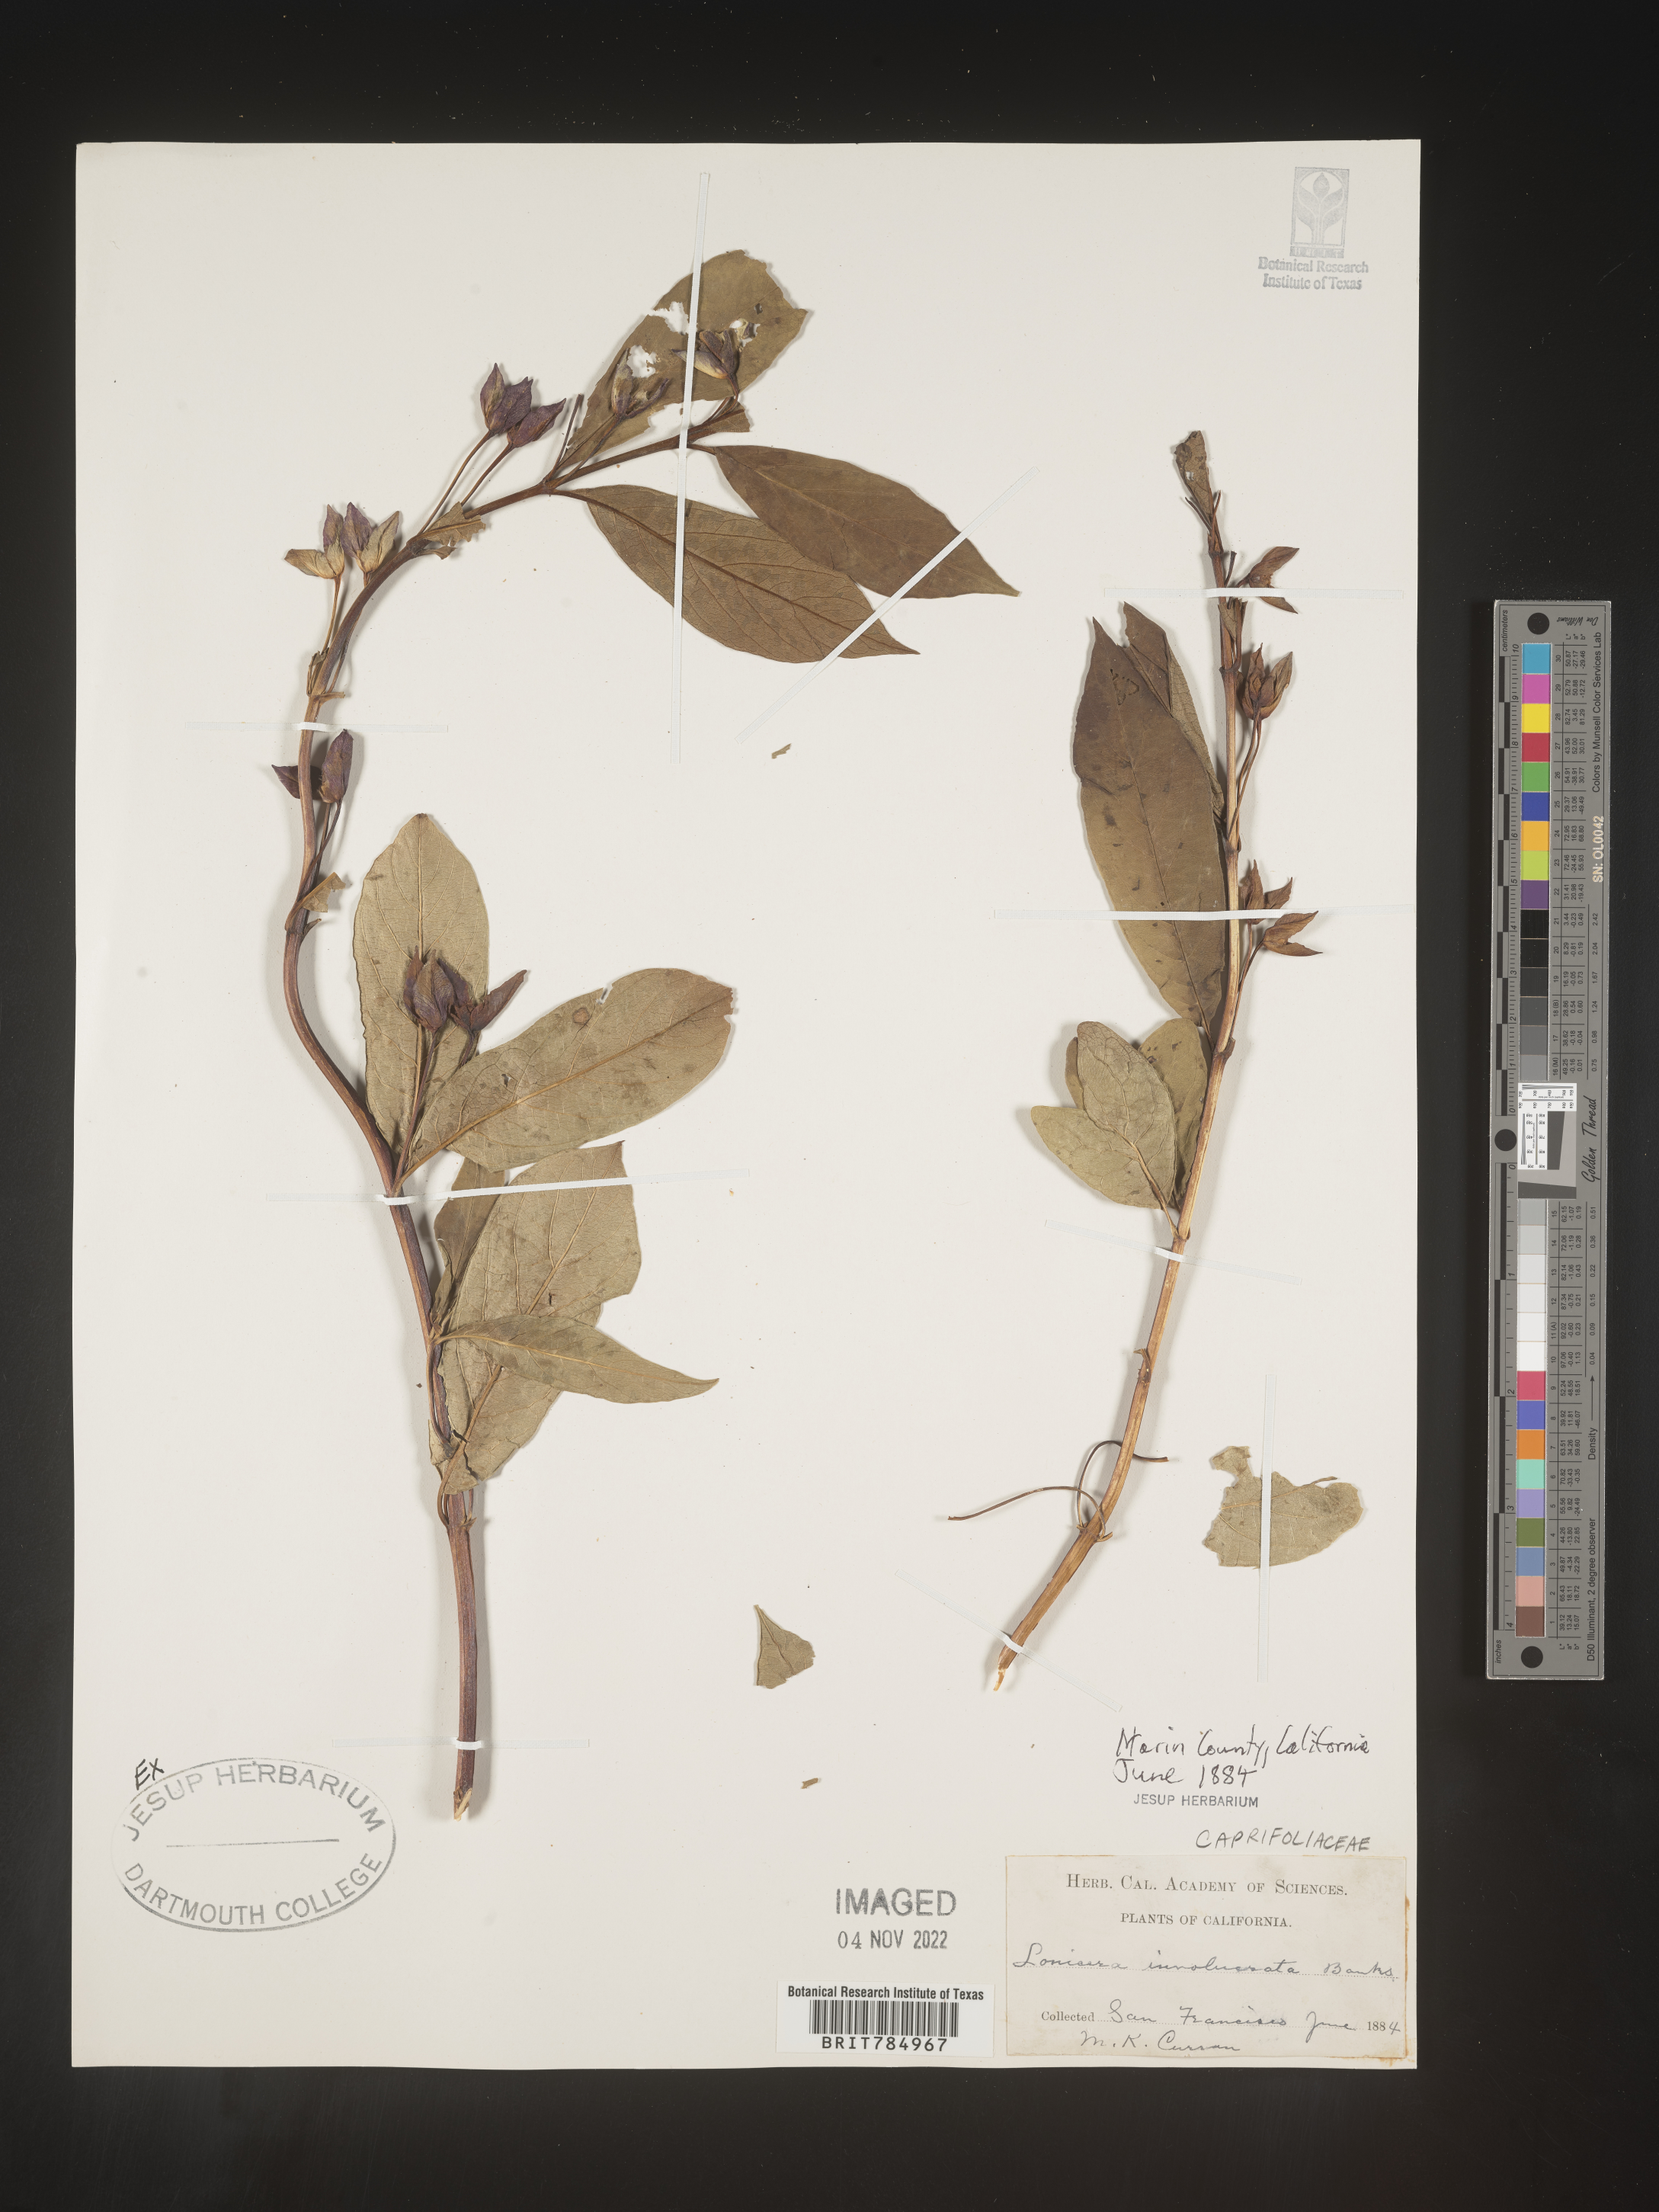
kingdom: Plantae
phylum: Tracheophyta
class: Magnoliopsida
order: Dipsacales
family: Caprifoliaceae
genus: Lonicera
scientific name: Lonicera involucrata
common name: Californian honeysuckle
